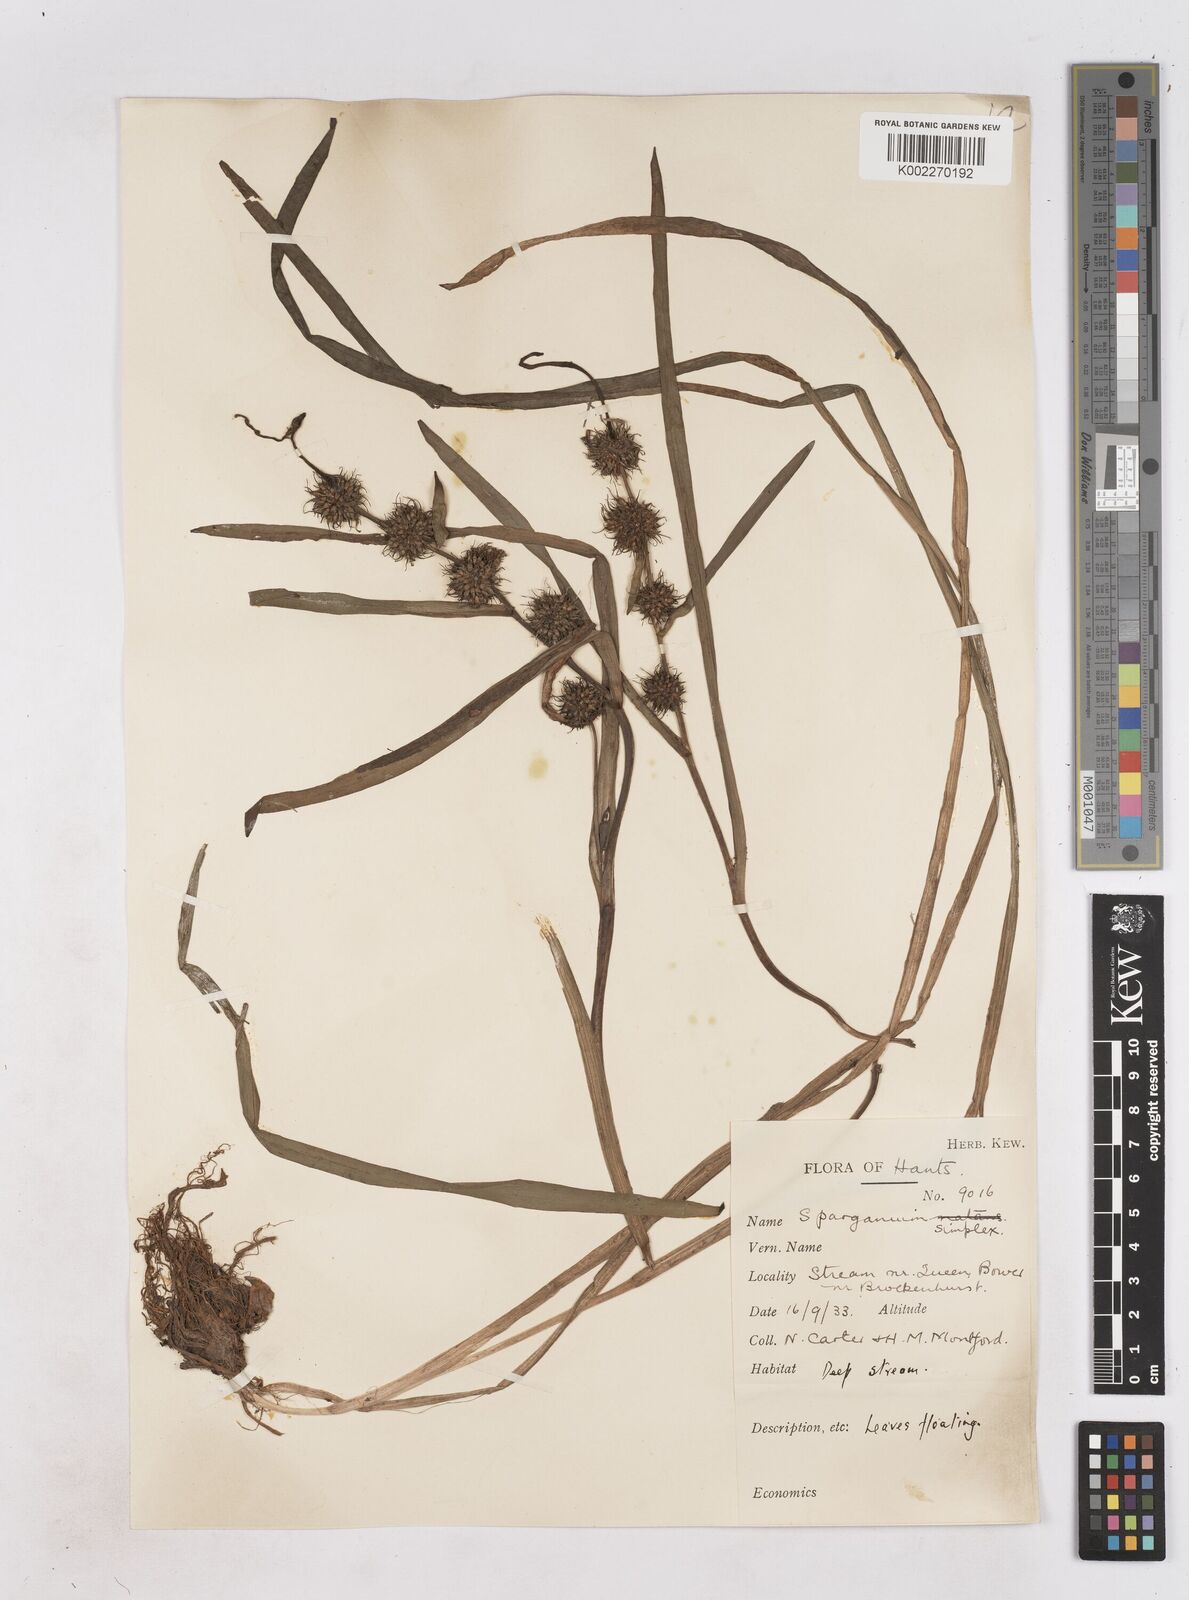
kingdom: Plantae
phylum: Tracheophyta
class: Liliopsida
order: Poales
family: Typhaceae
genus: Sparganium
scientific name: Sparganium emersum
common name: Unbranched bur-reed
